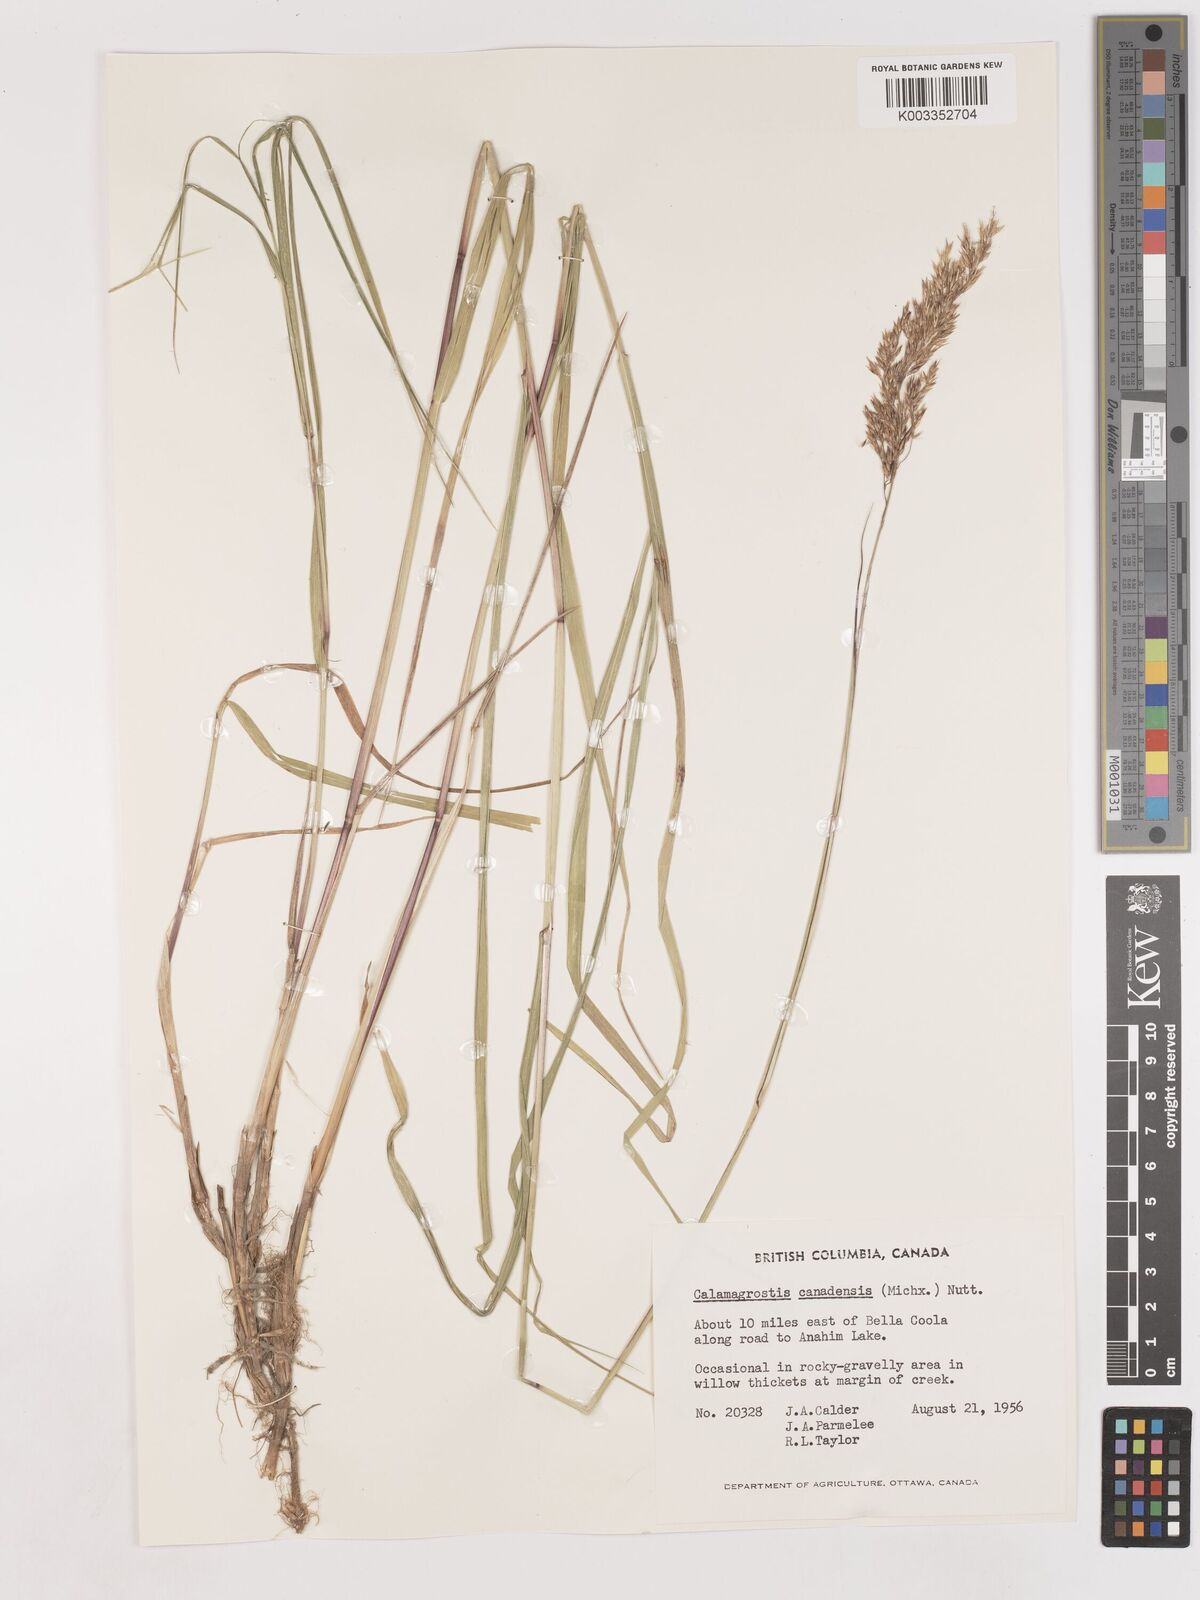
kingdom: Plantae
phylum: Tracheophyta
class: Liliopsida
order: Poales
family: Poaceae
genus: Calamagrostis
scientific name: Calamagrostis canadensis
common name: Canada bluejoint
